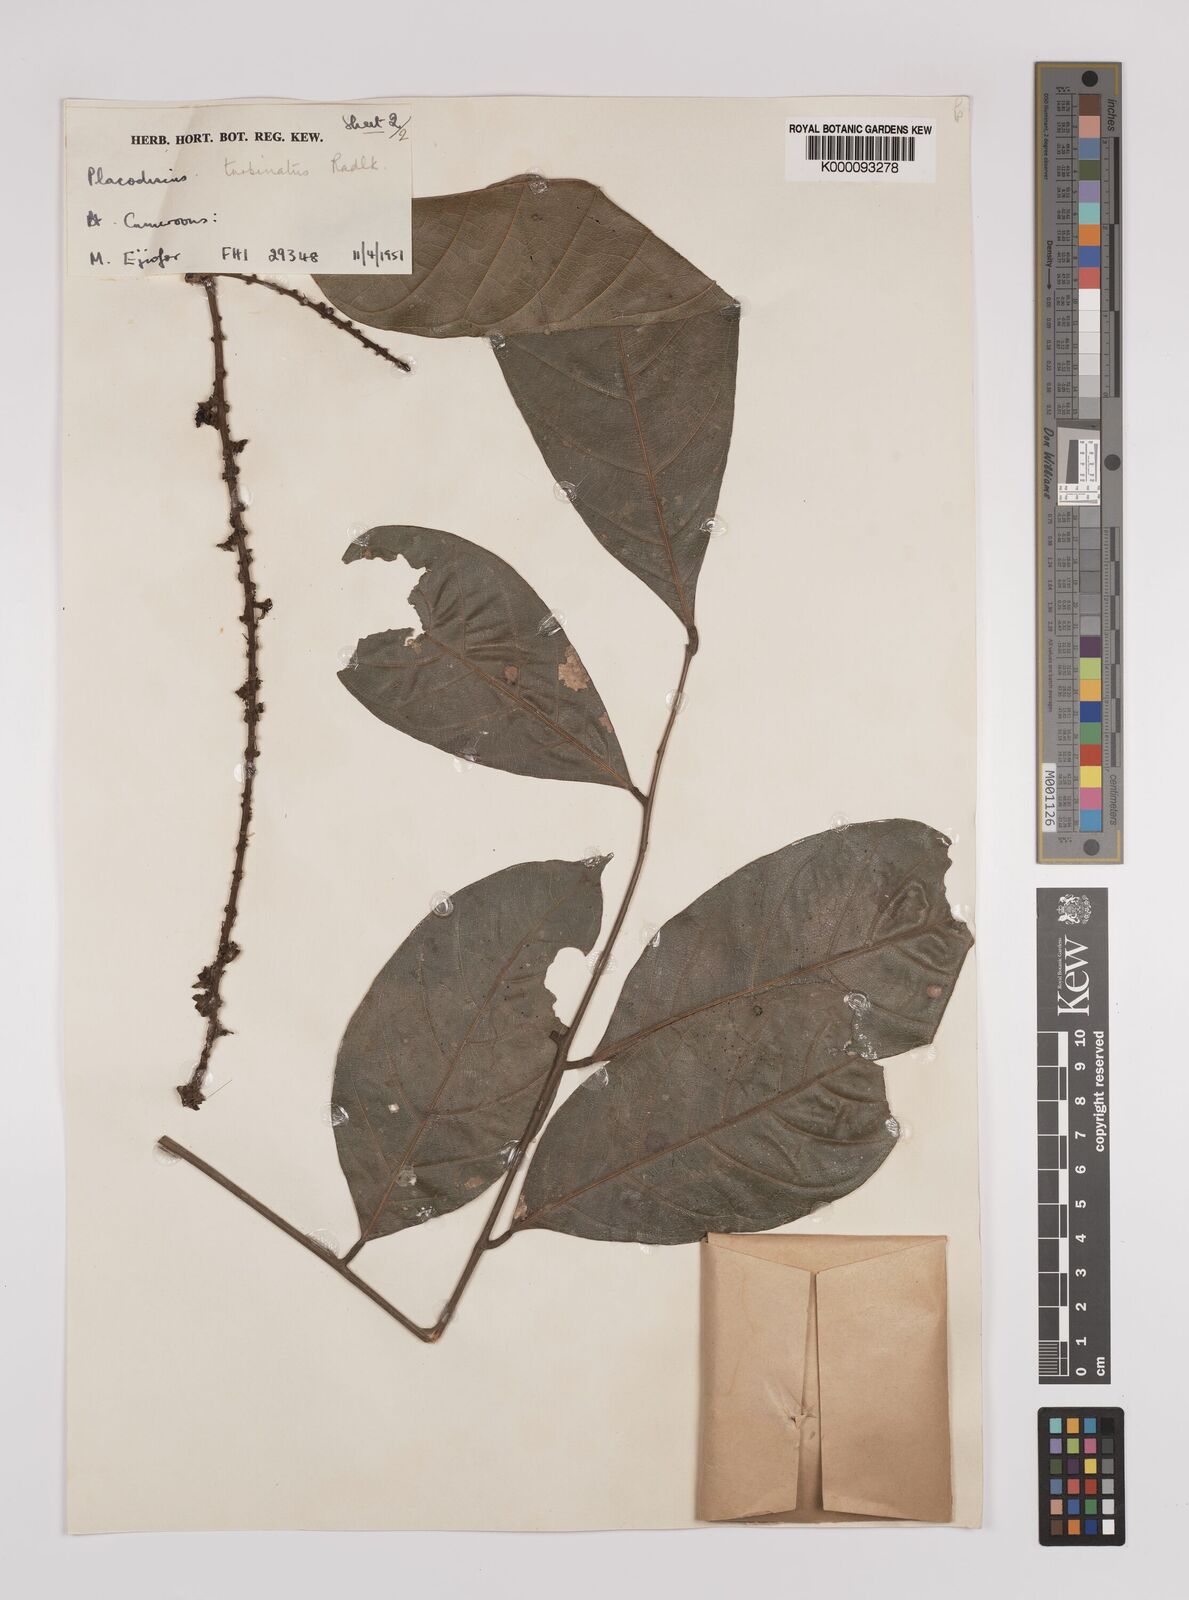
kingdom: Plantae
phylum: Tracheophyta
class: Magnoliopsida
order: Sapindales
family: Sapindaceae
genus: Placodiscus
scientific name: Placodiscus turbinatus
